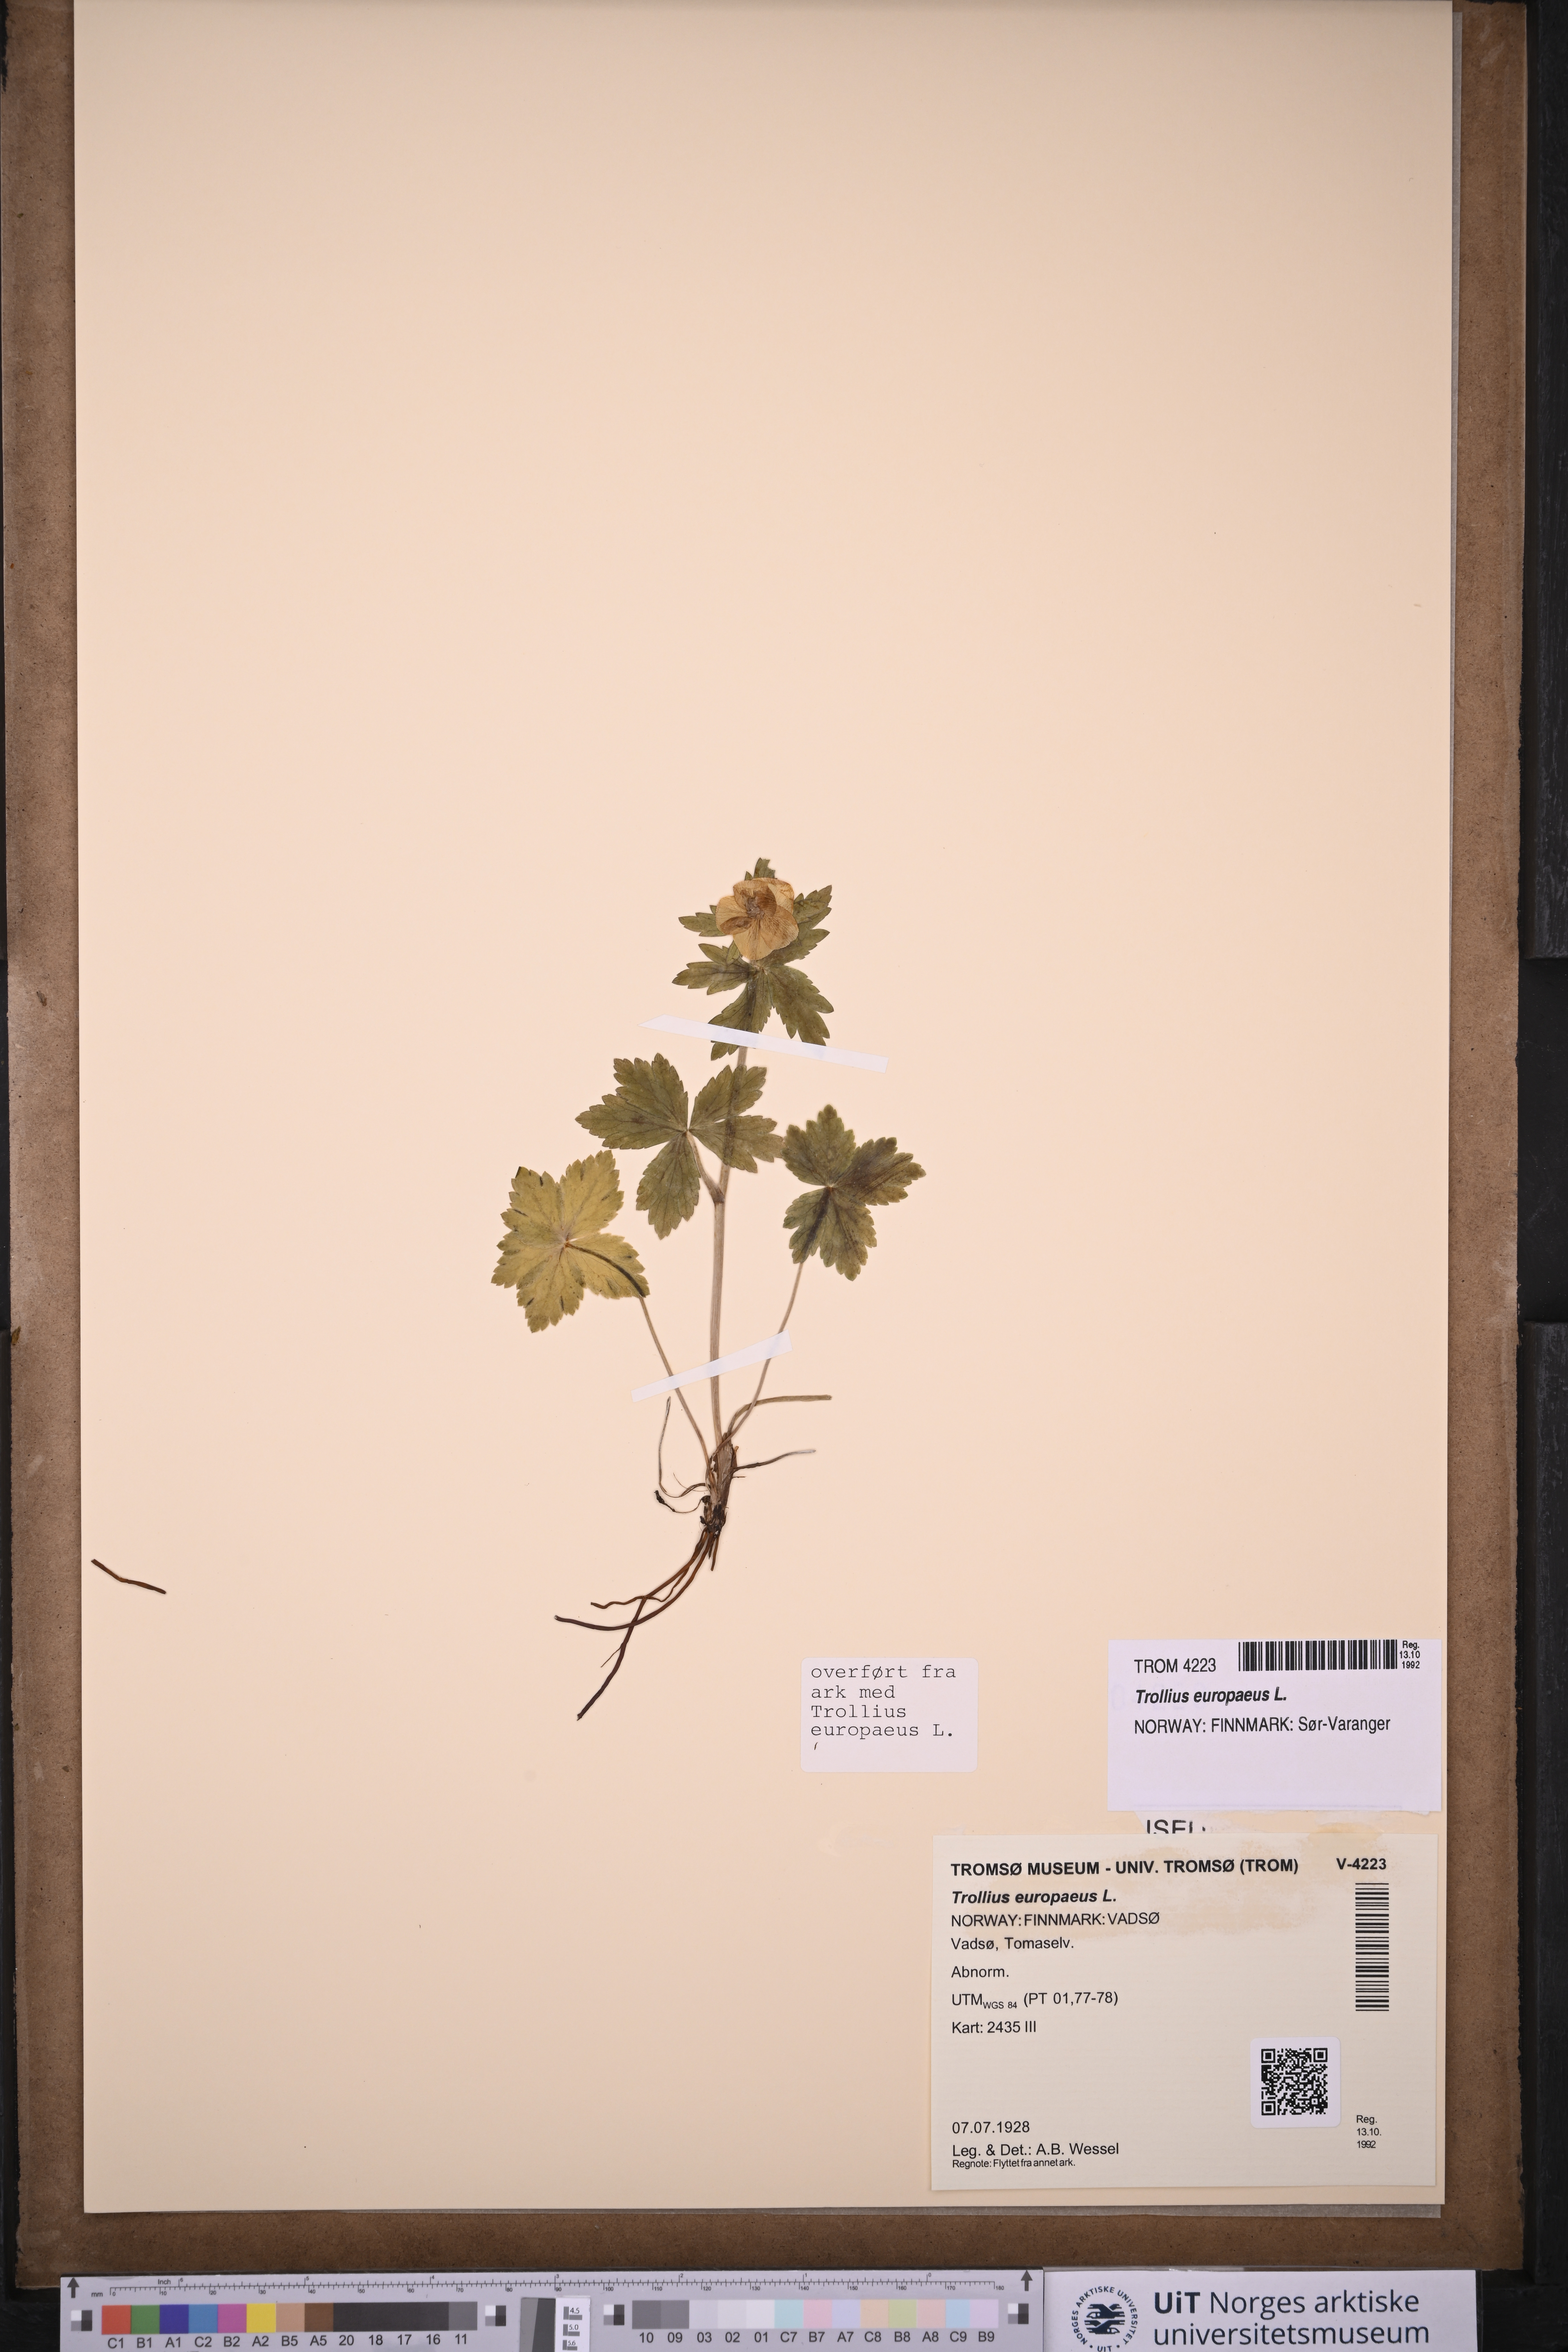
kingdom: Plantae
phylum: Tracheophyta
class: Magnoliopsida
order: Ranunculales
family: Ranunculaceae
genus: Trollius
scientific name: Trollius europaeus
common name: European globeflower
